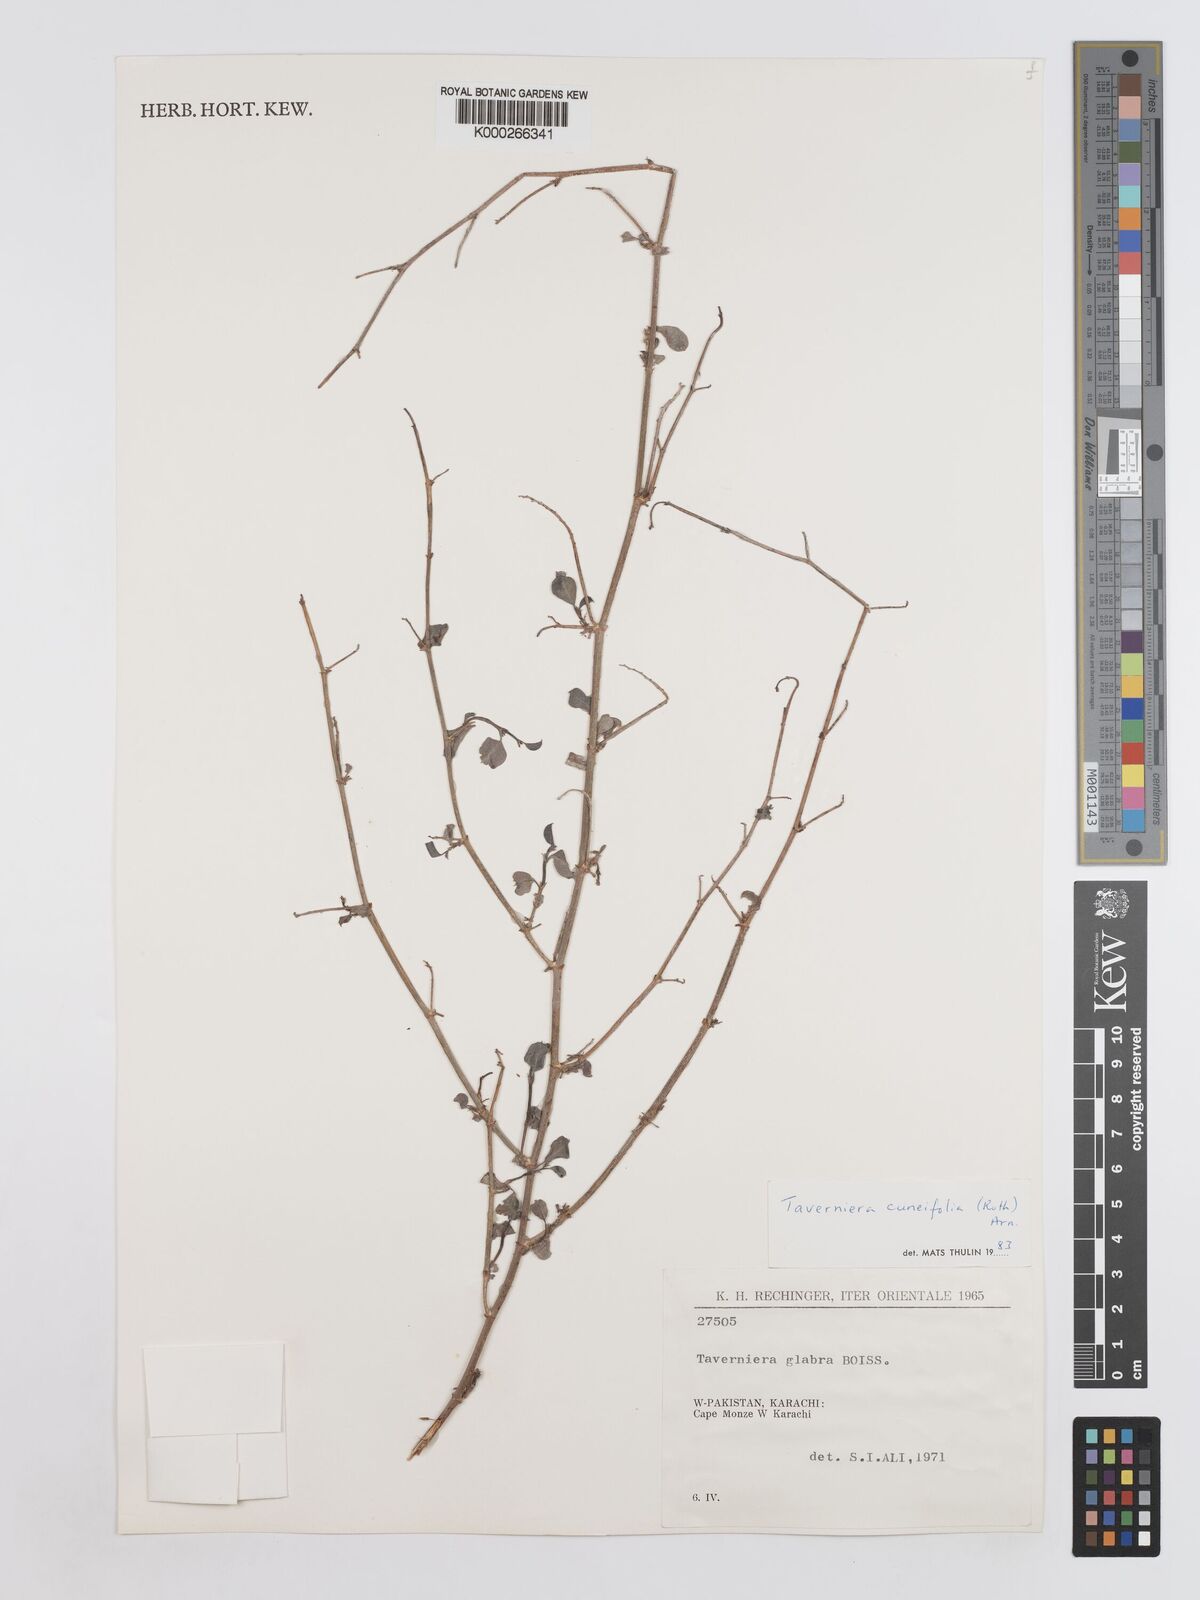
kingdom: Plantae
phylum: Tracheophyta
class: Magnoliopsida
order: Fabales
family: Fabaceae
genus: Taverniera
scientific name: Taverniera cuneifolia
